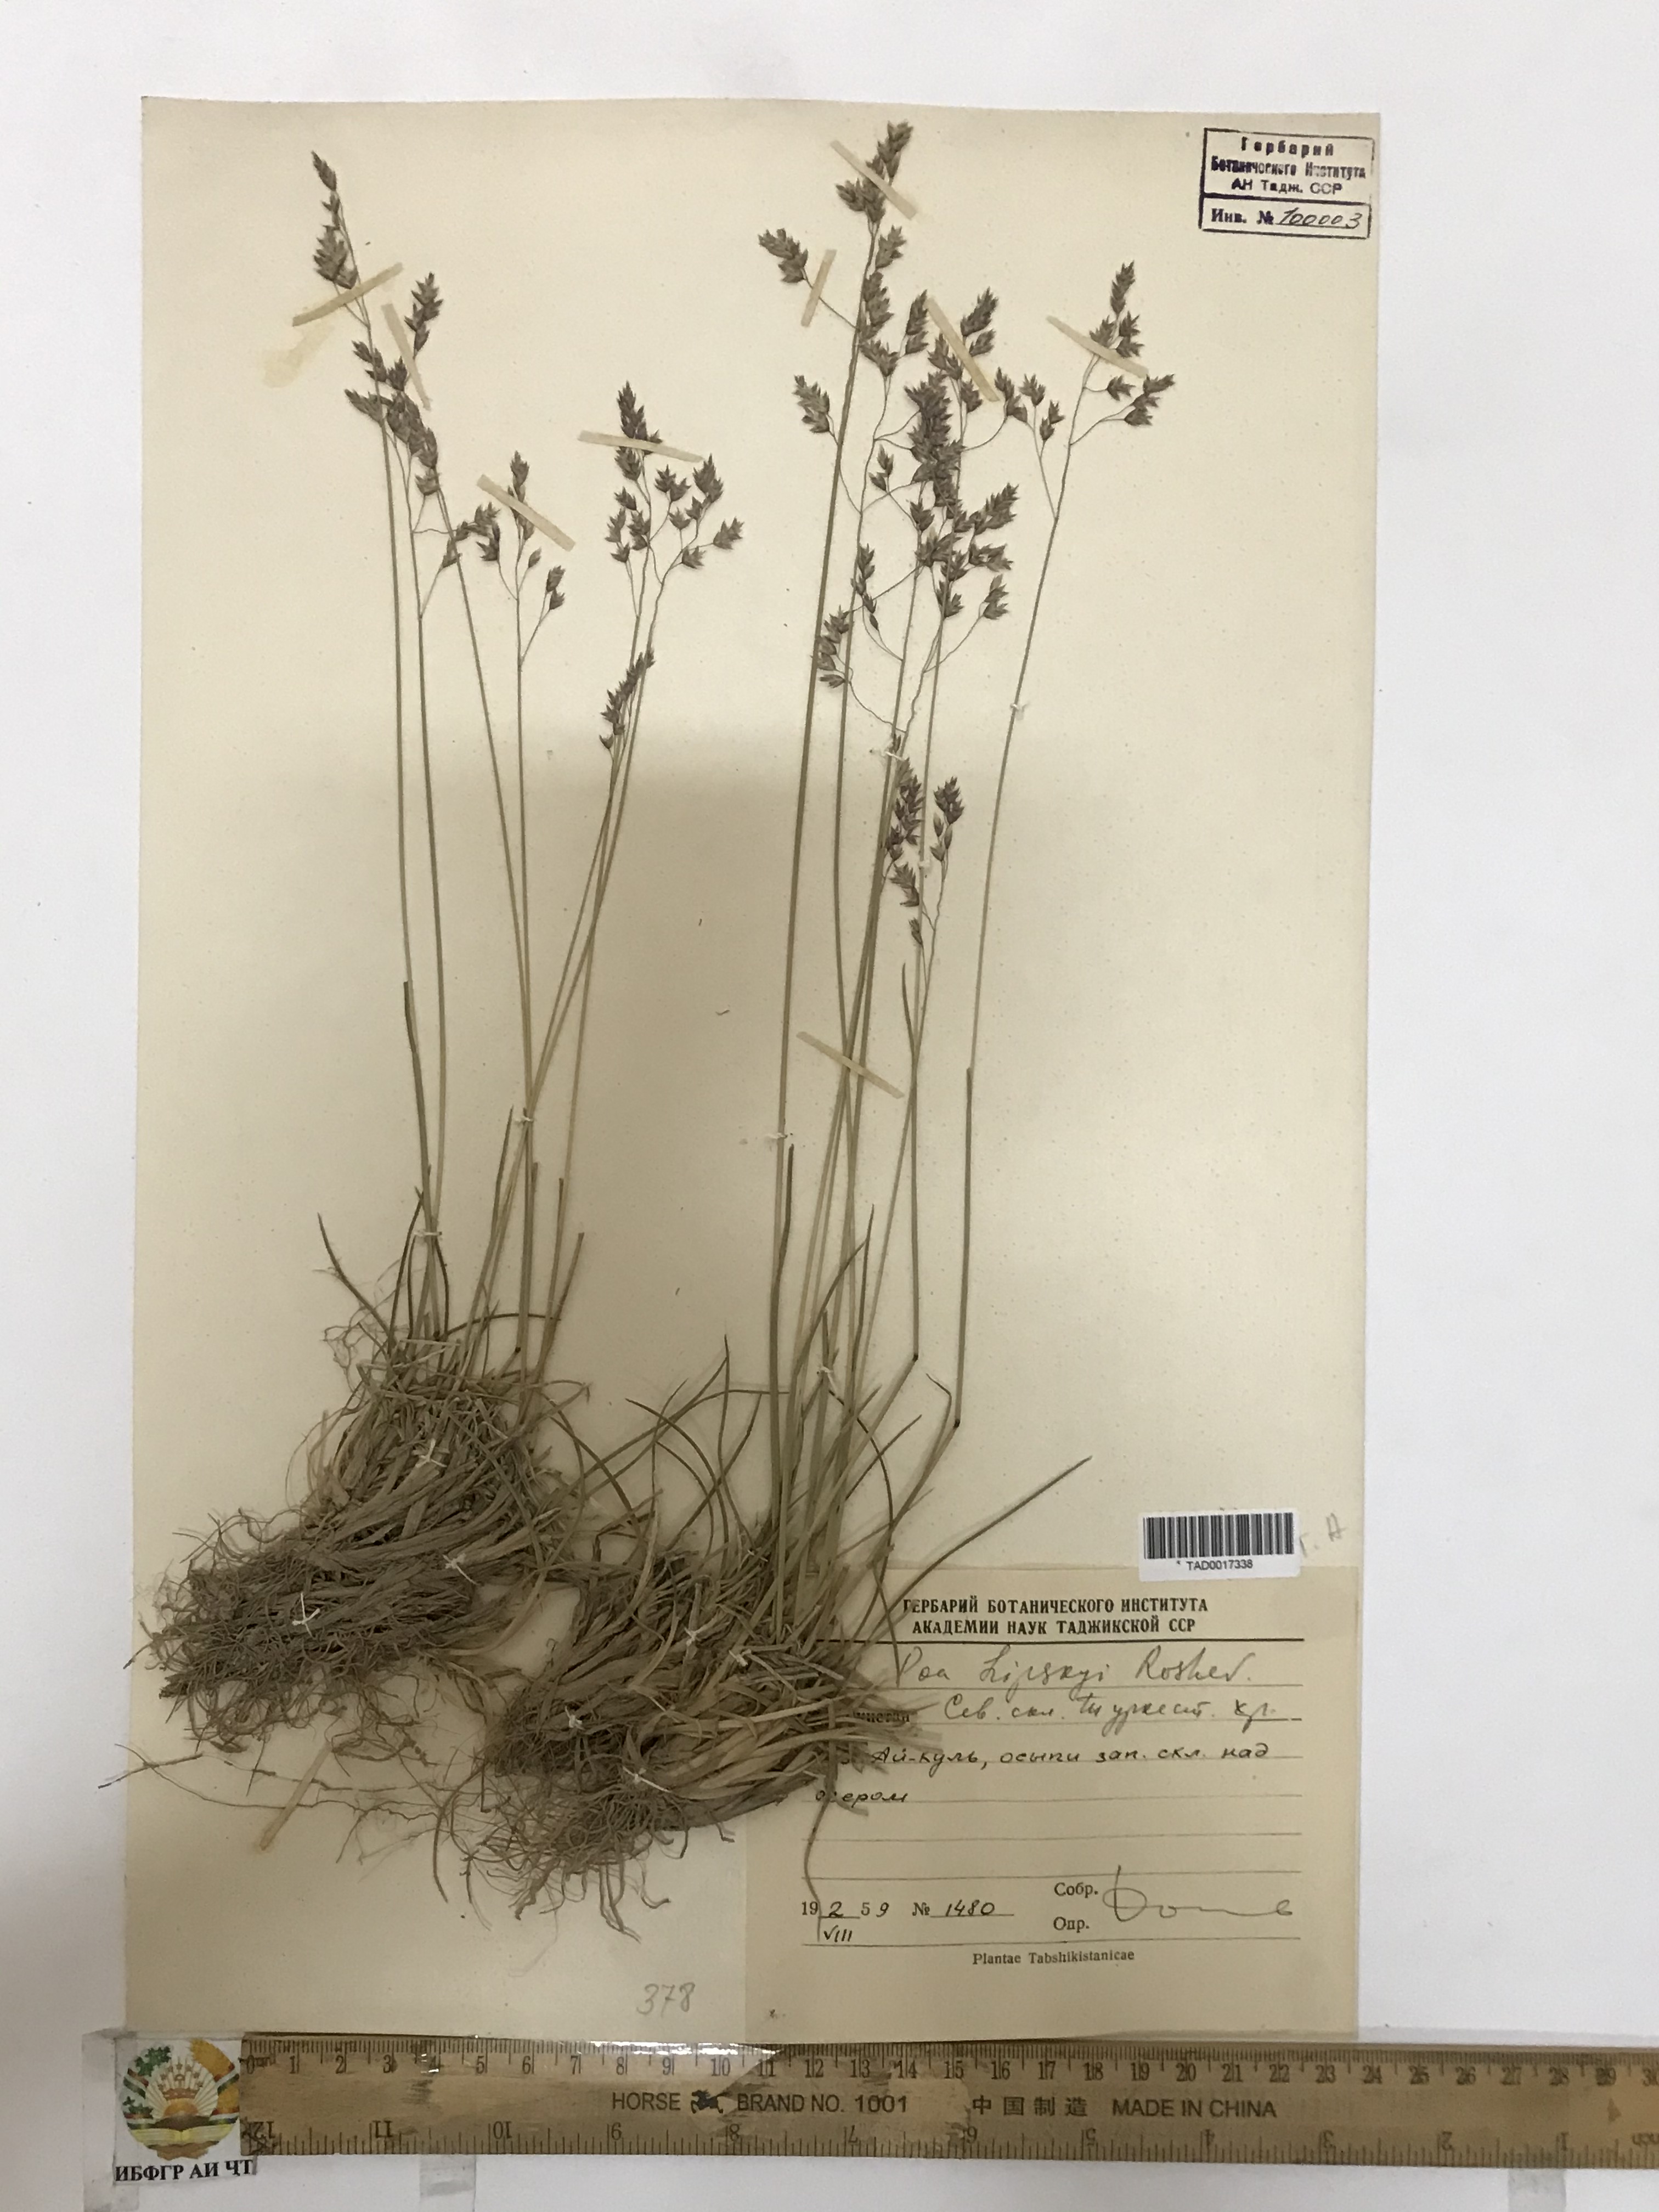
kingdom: Plantae
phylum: Tracheophyta
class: Liliopsida
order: Poales
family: Poaceae
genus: Poa
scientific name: Poa lipskyi
